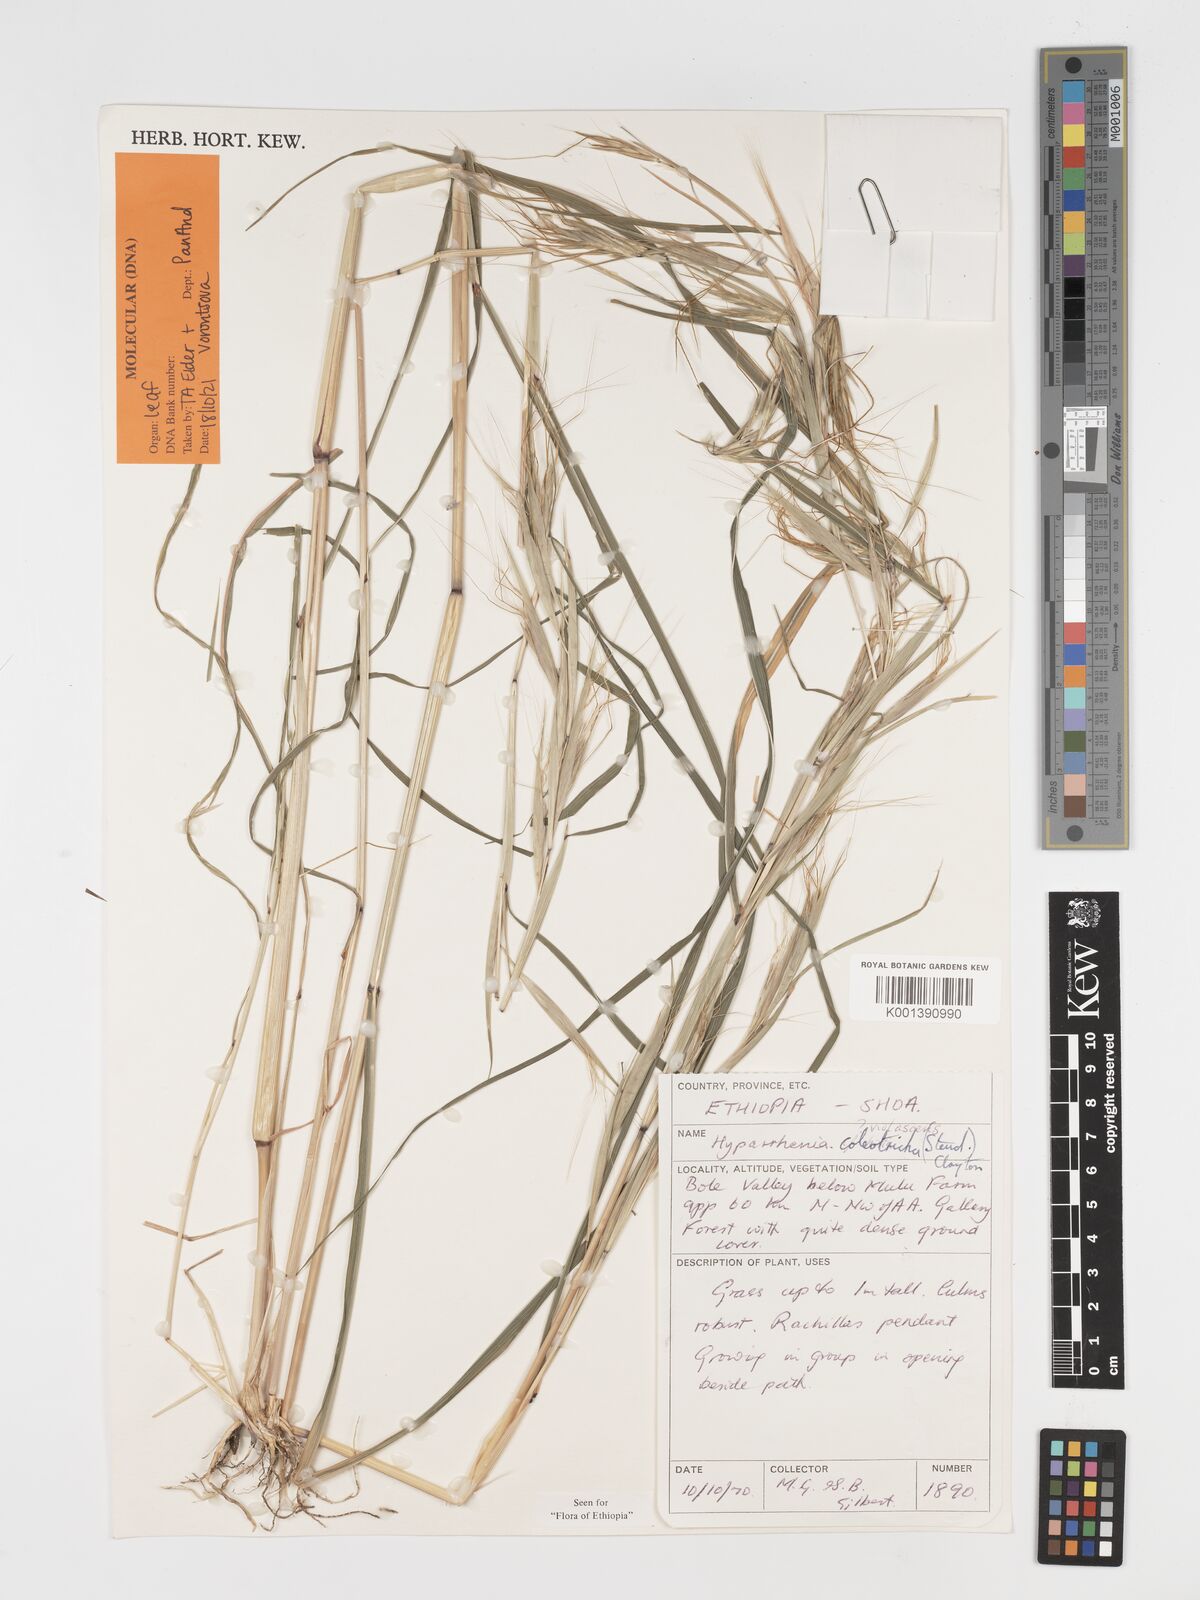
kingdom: Plantae
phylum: Tracheophyta
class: Liliopsida
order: Poales
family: Poaceae
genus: Hyparrhenia
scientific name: Hyparrhenia coleotricha
